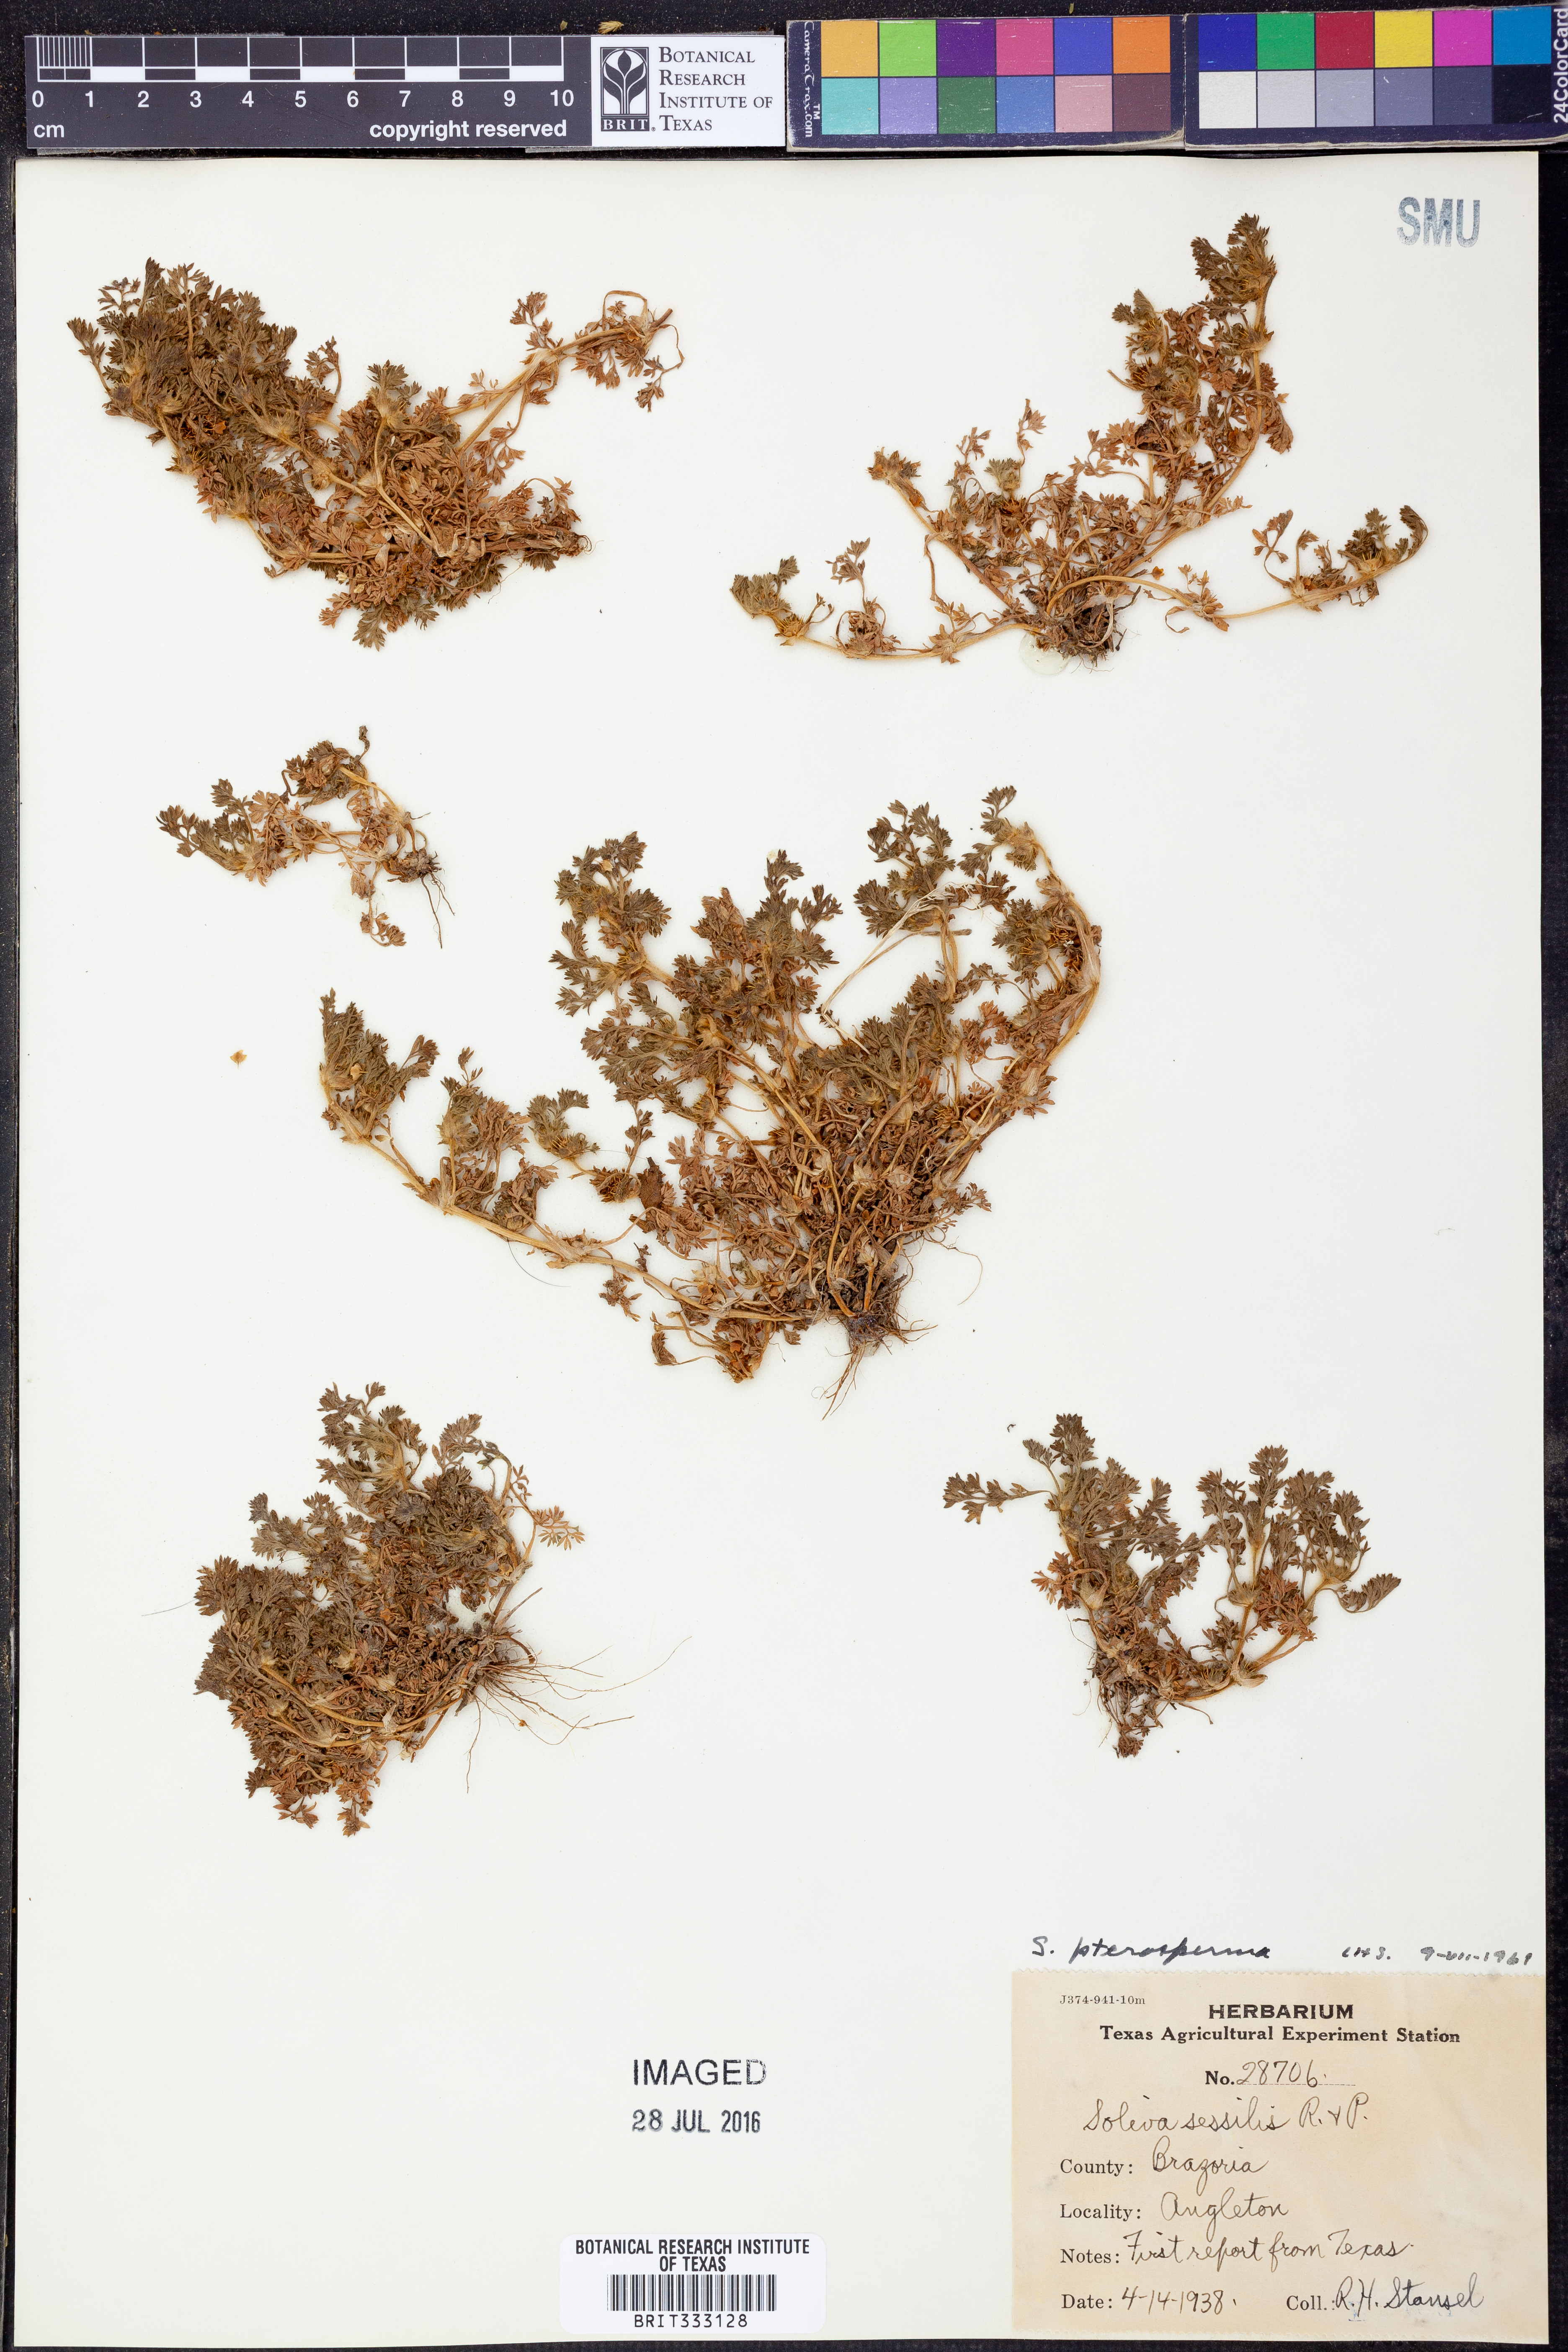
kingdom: Plantae
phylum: Tracheophyta
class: Magnoliopsida
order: Asterales
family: Asteraceae
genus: Soliva
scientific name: Soliva sessilis
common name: Field burrweed
